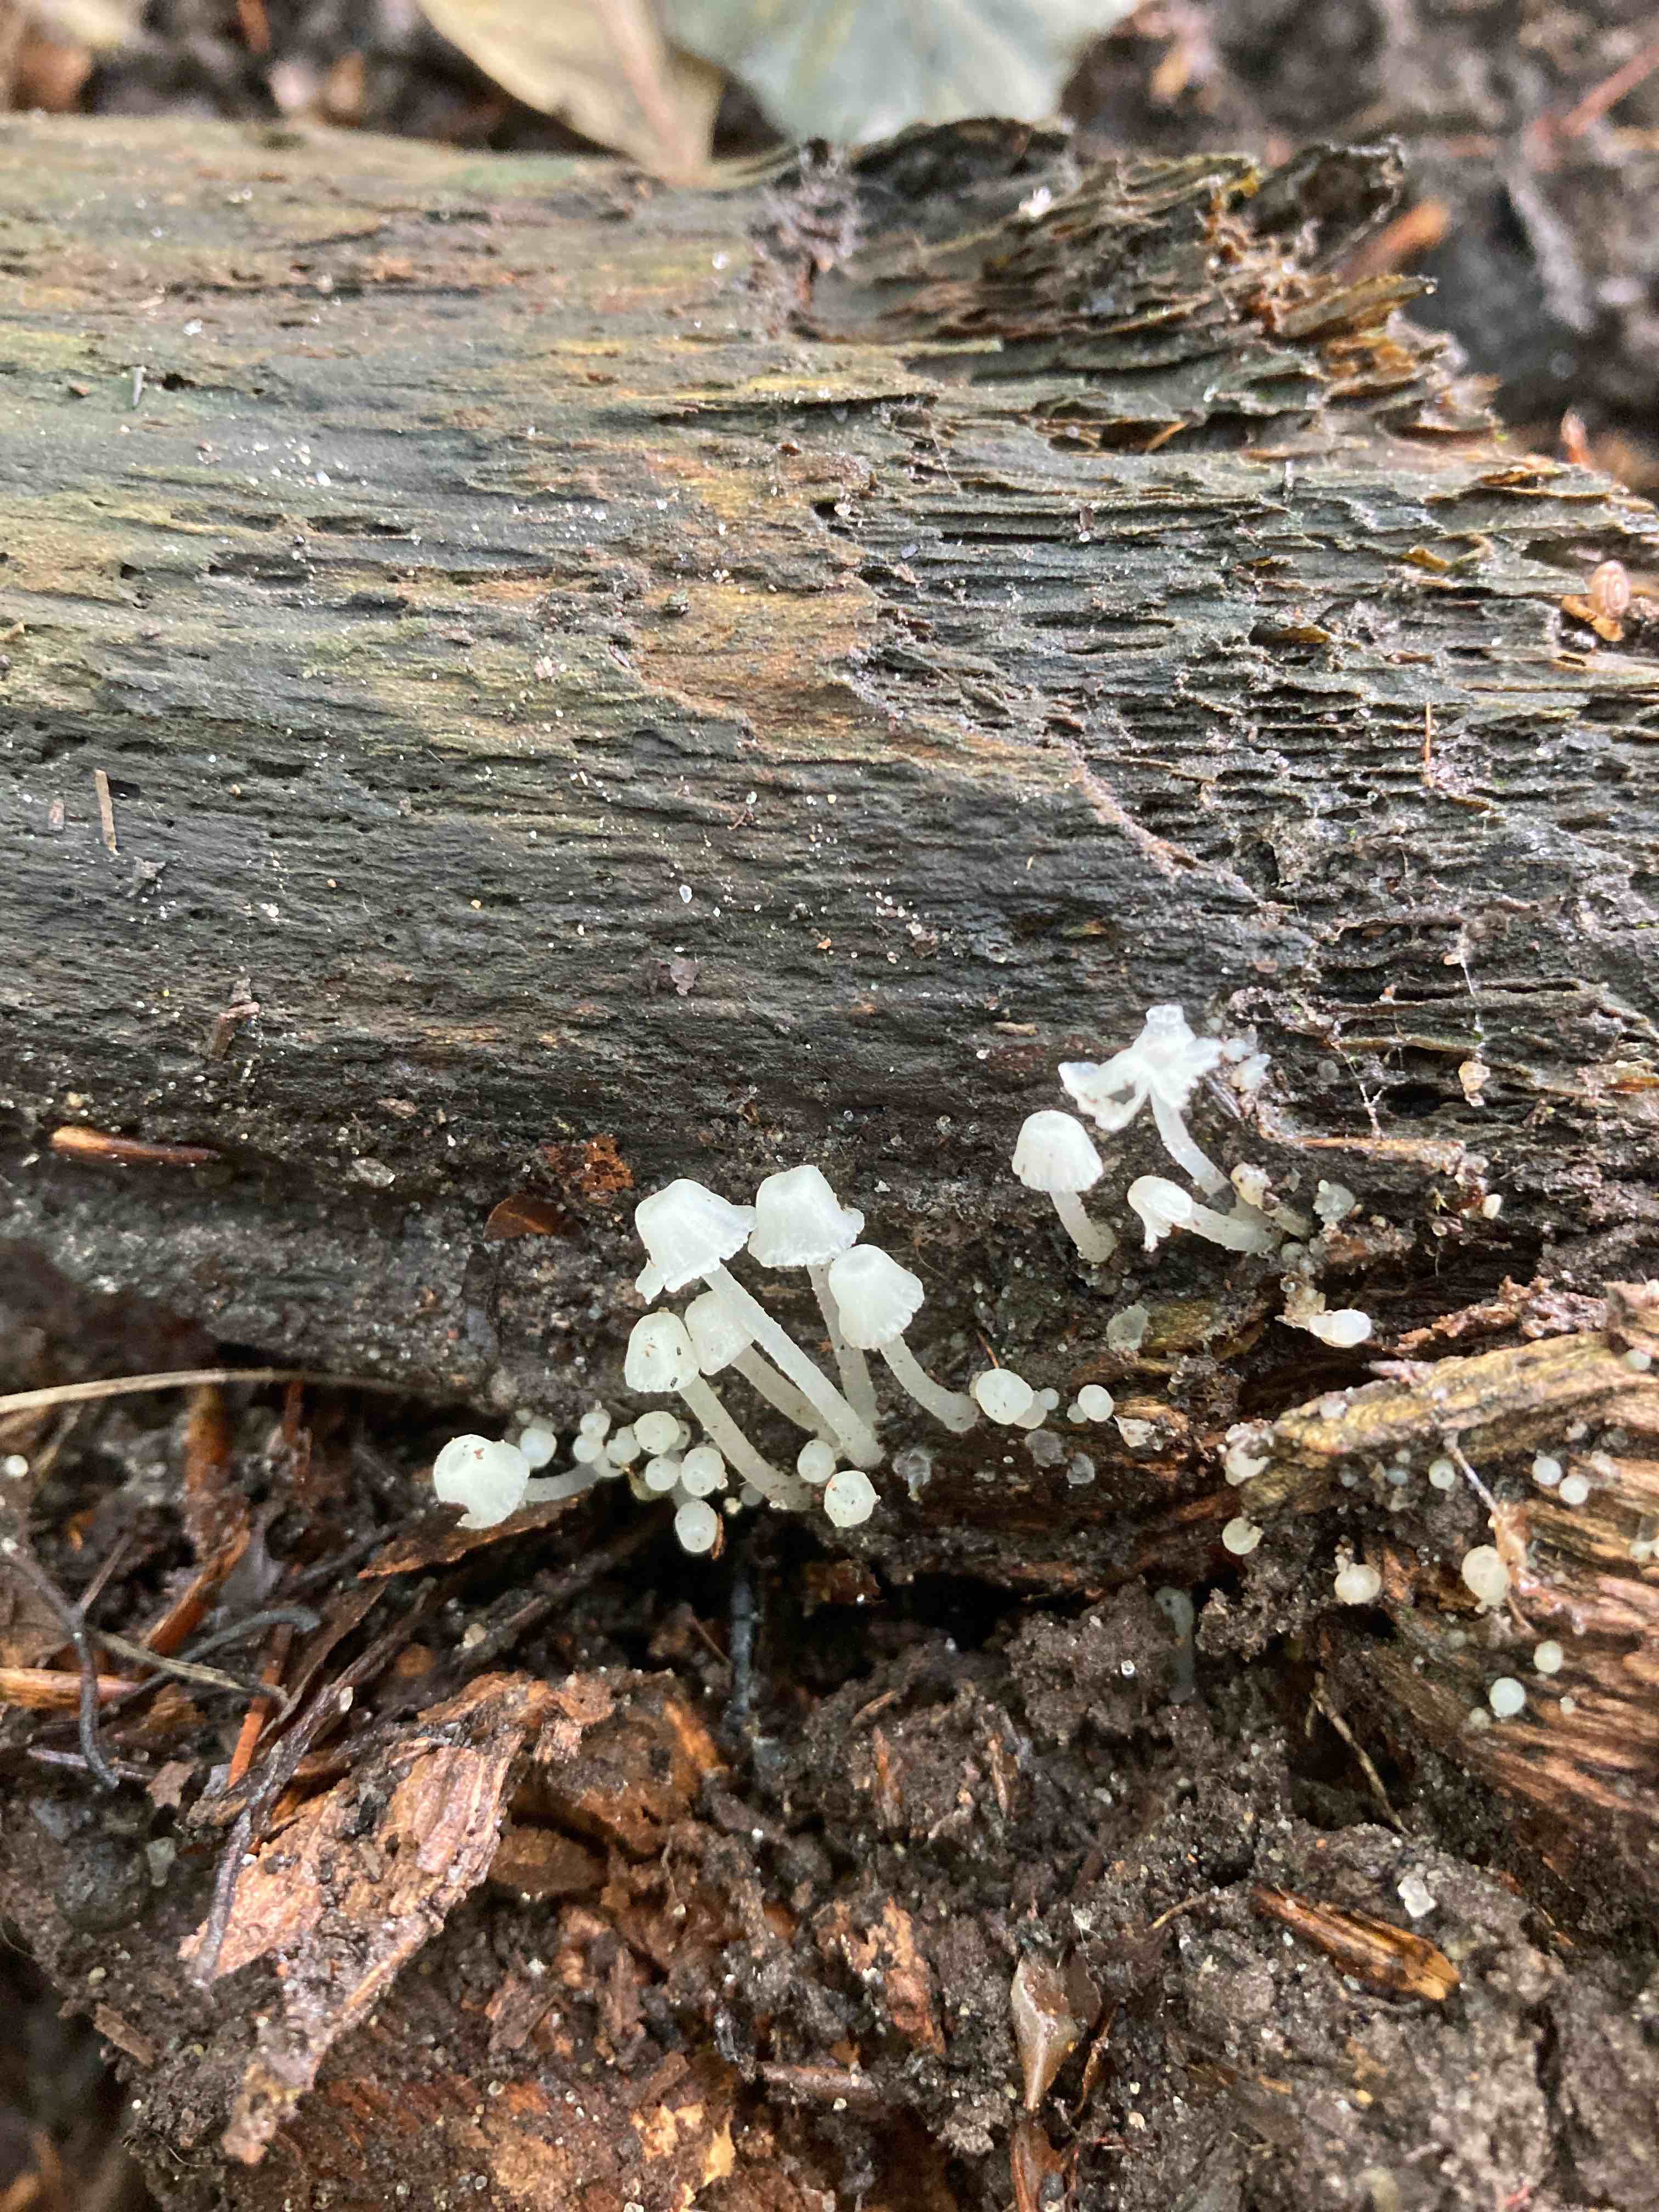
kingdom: Fungi
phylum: Basidiomycota
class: Agaricomycetes
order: Agaricales
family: Tricholomataceae
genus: Delicatula
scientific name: Delicatula integrella
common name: slørhuesvamp
